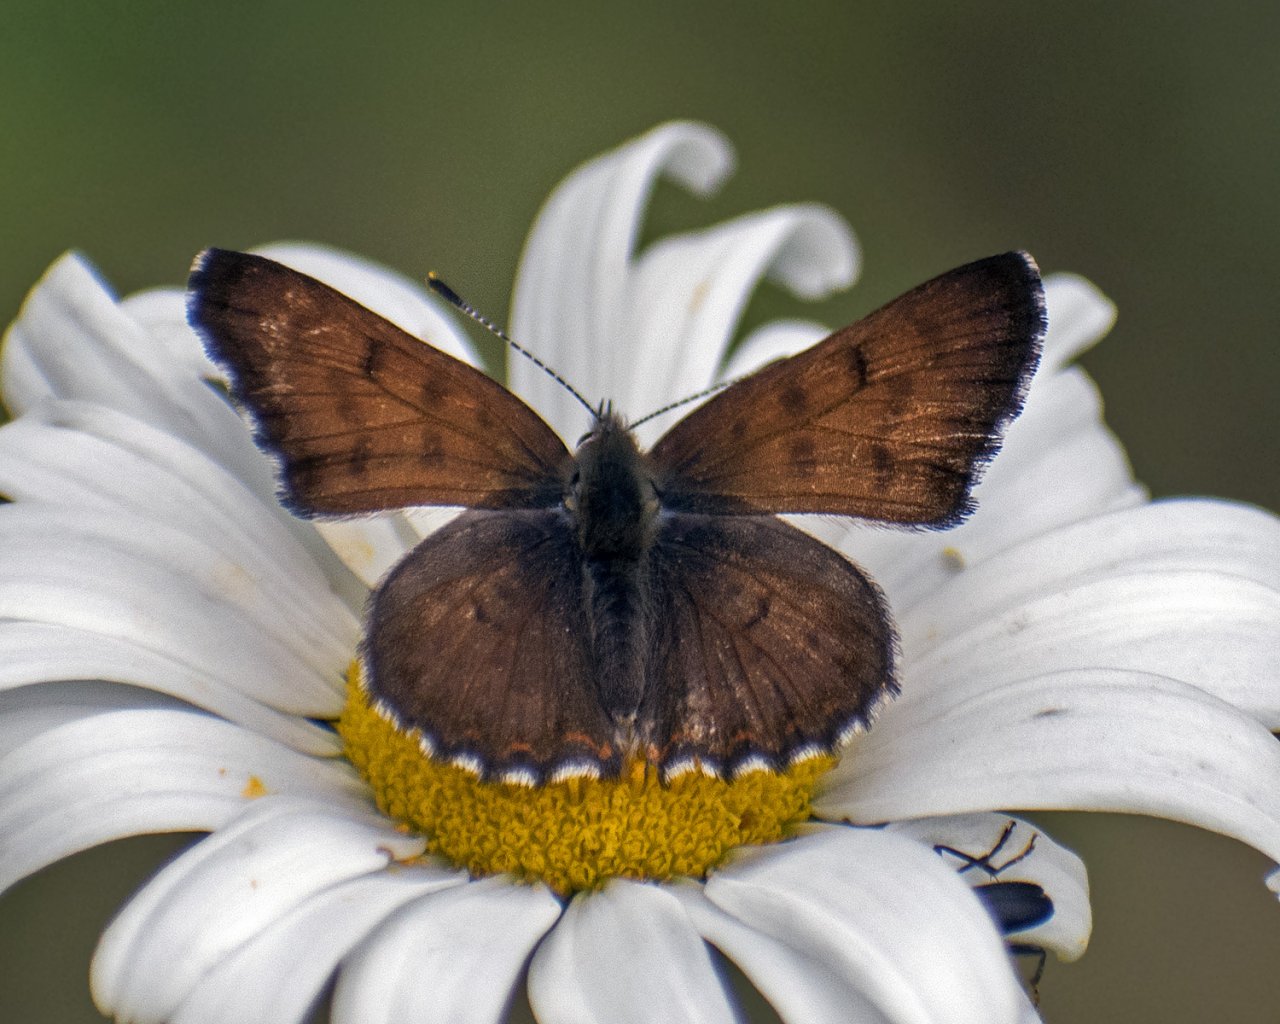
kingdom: Animalia
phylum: Arthropoda
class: Insecta
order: Lepidoptera
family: Lycaenidae
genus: Lycaena
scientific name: Lycaena mariposa
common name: Mariposa Copper
